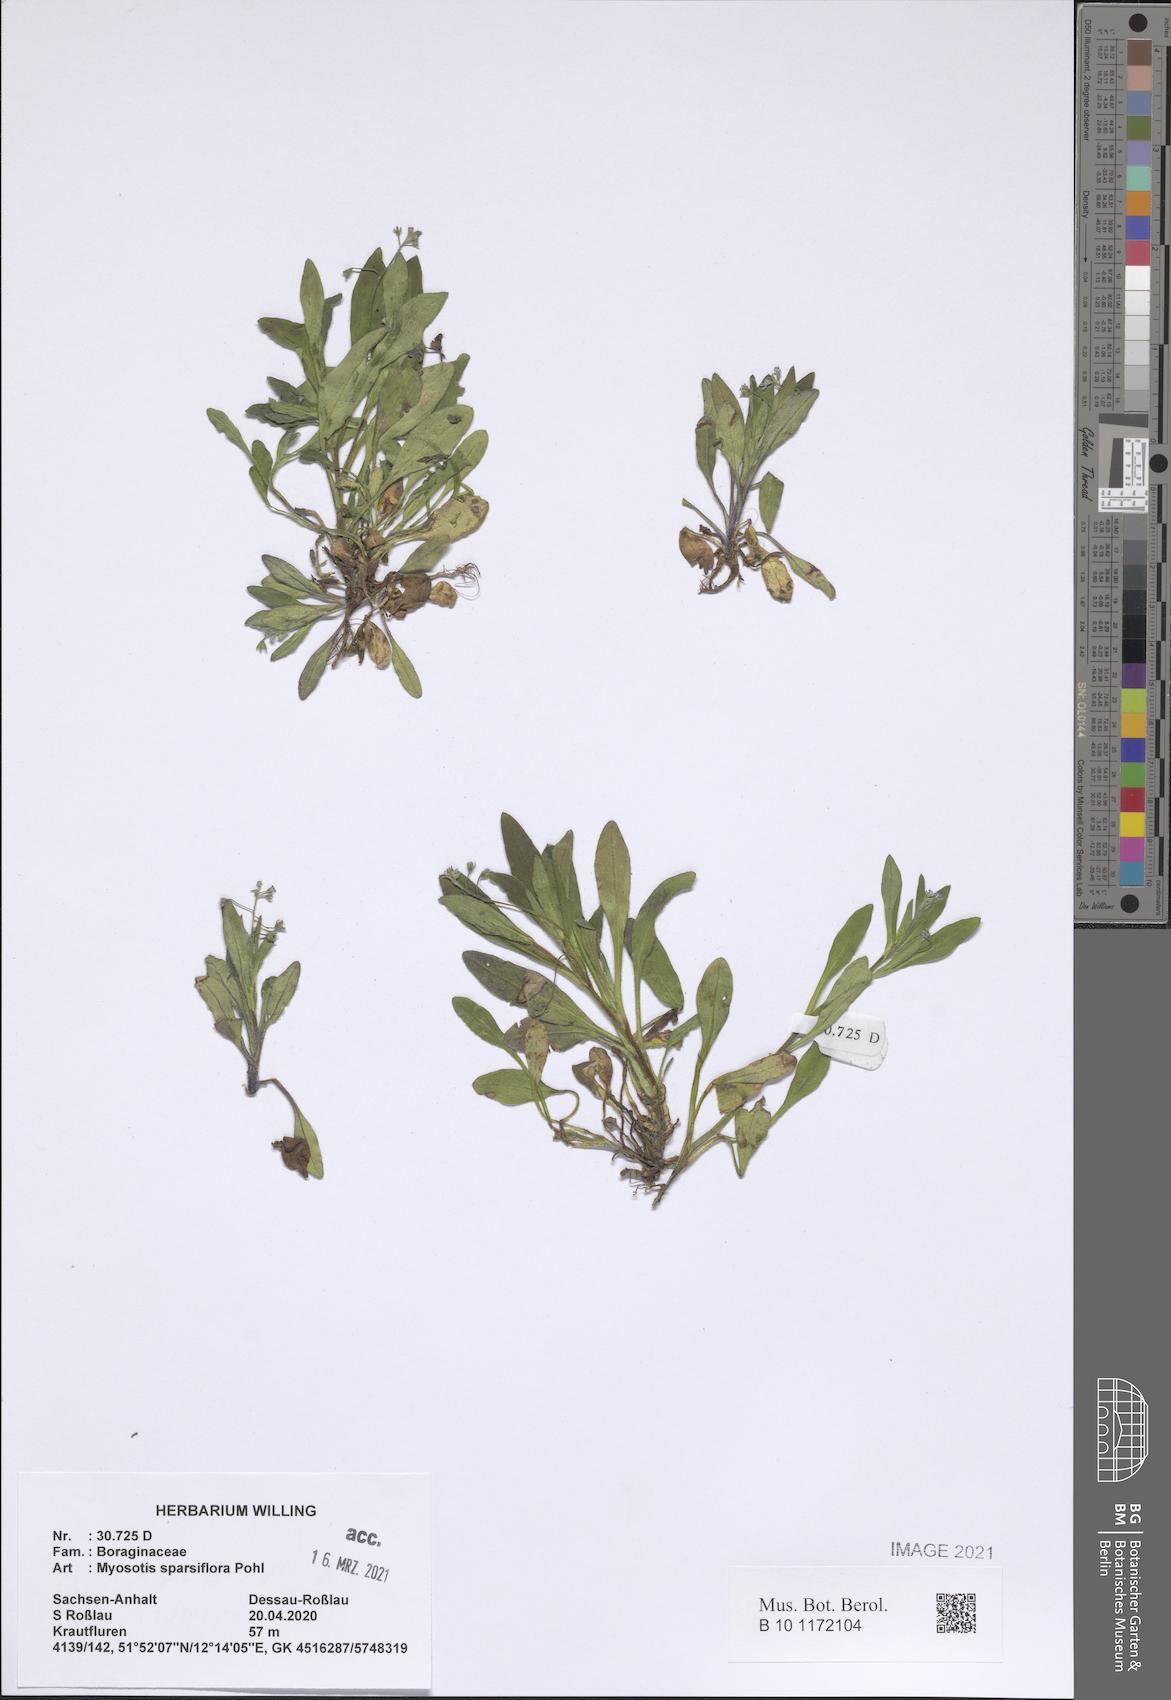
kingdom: Plantae
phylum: Tracheophyta
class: Magnoliopsida
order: Boraginales
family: Boraginaceae
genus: Myosotis
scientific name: Myosotis sparsiflora
